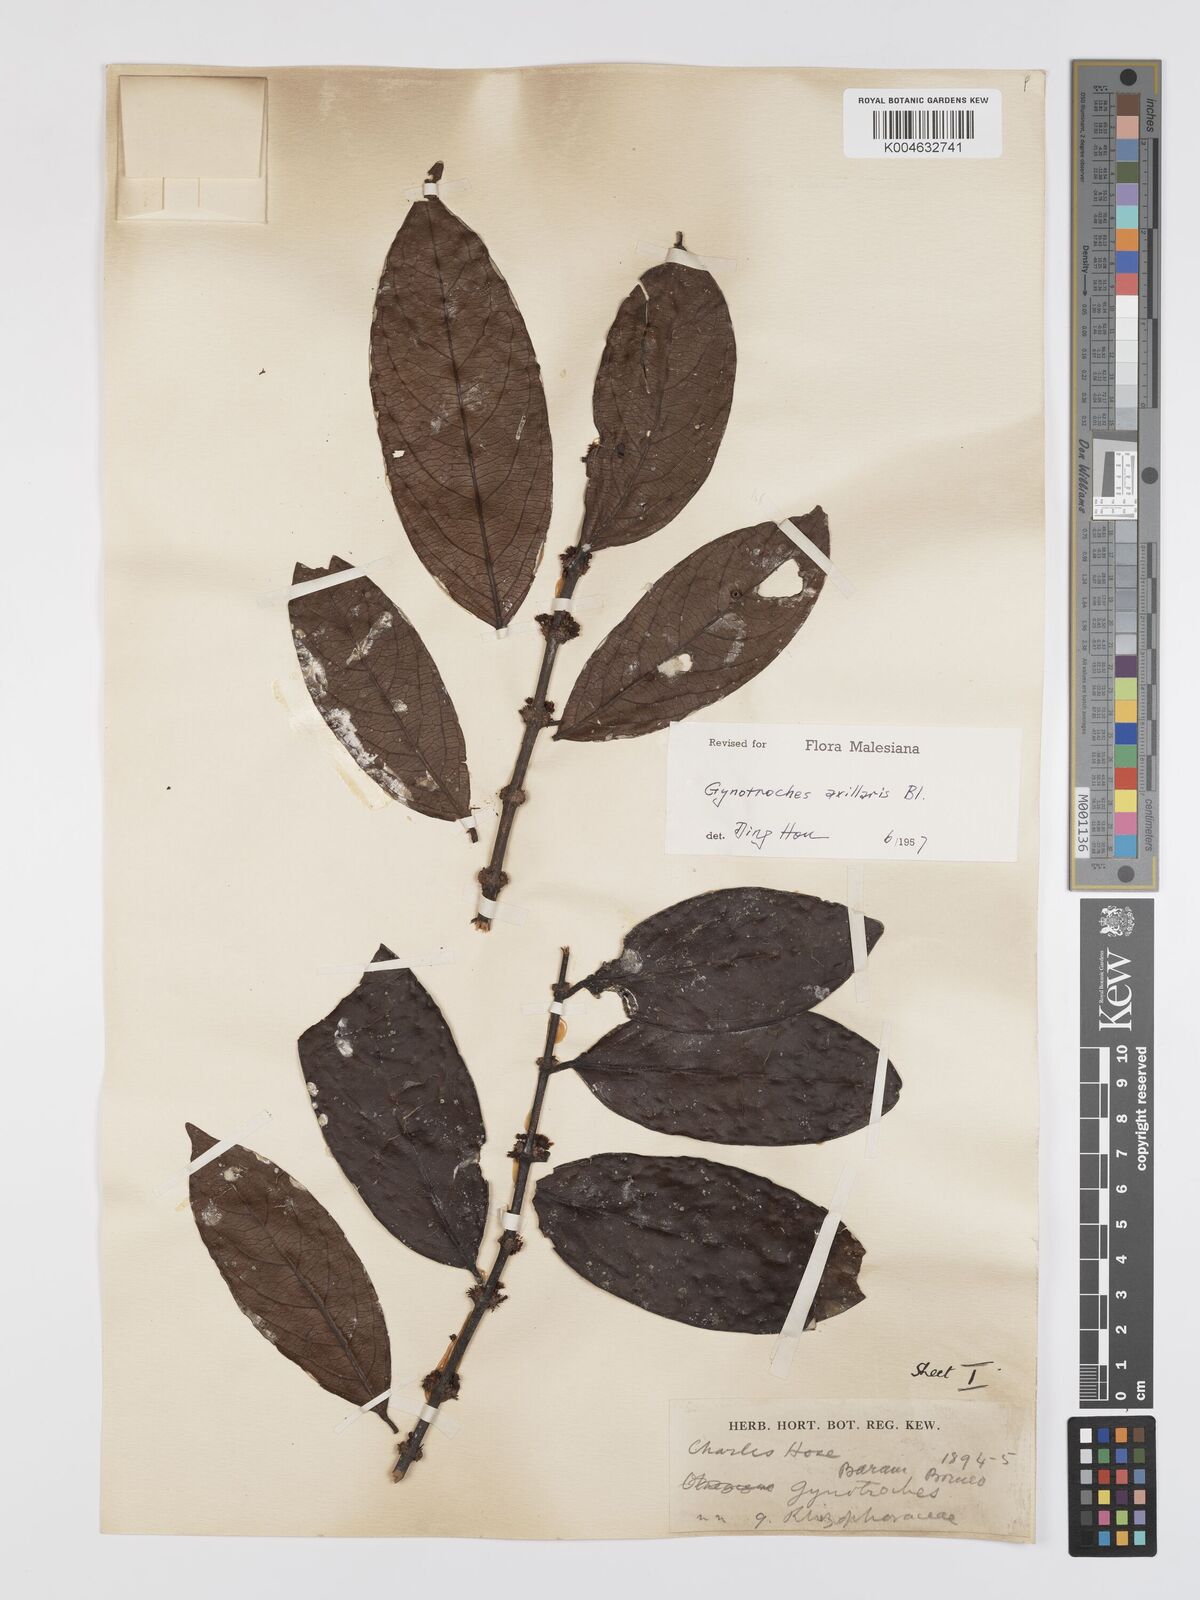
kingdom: Plantae
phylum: Tracheophyta
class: Magnoliopsida
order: Malpighiales
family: Rhizophoraceae
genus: Gynotroches
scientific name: Gynotroches axillaris
